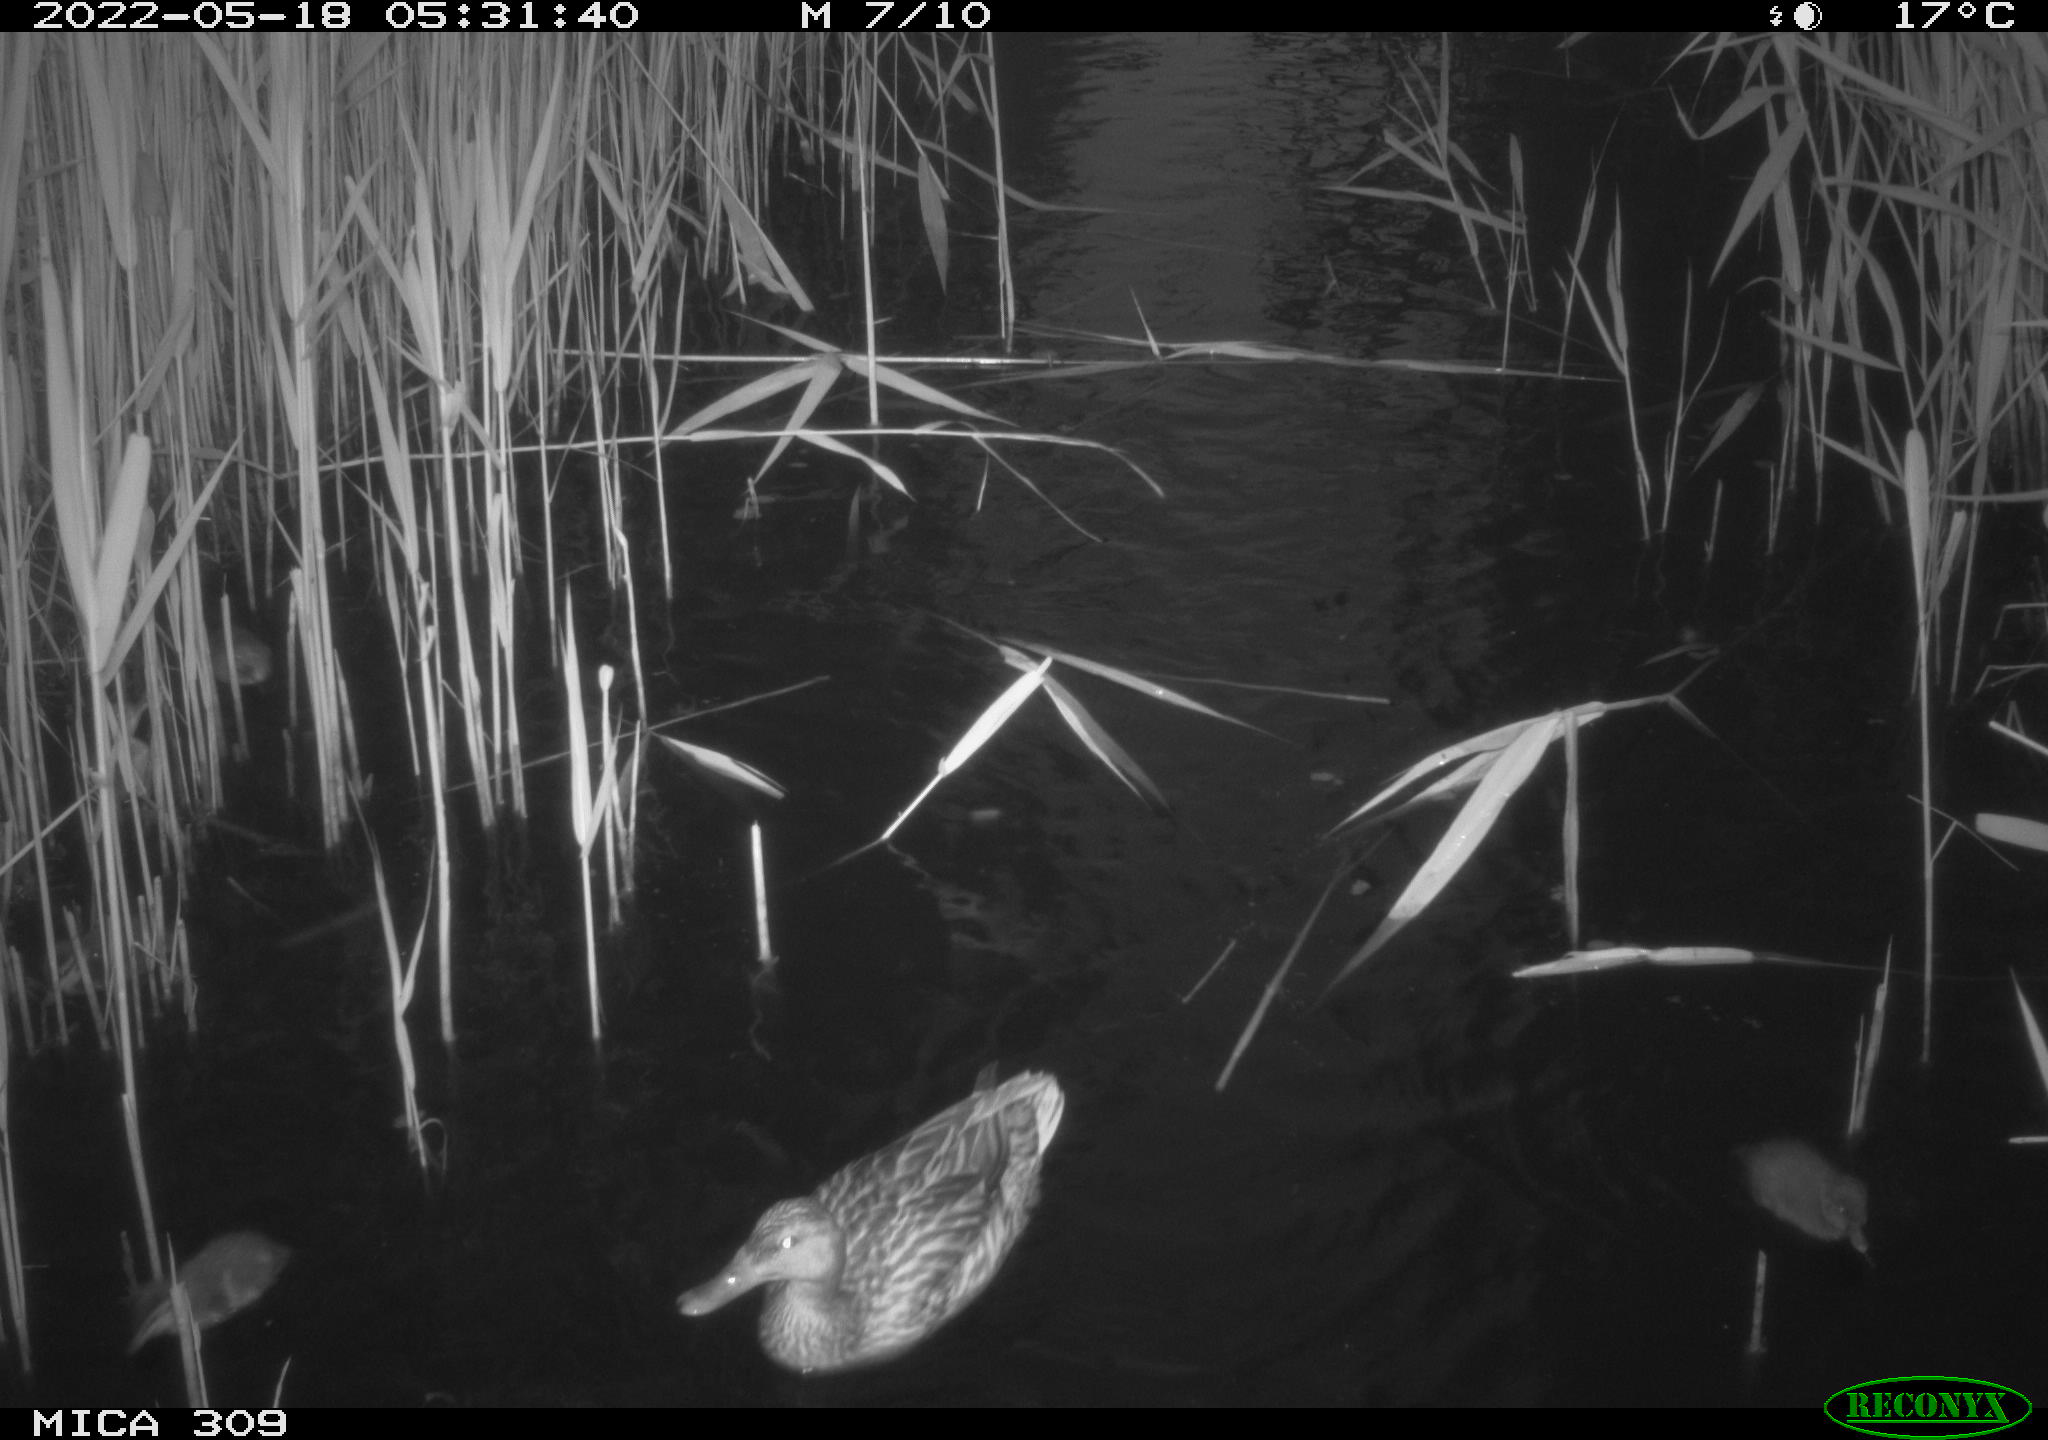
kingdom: Animalia
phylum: Chordata
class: Aves
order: Anseriformes
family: Anatidae
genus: Anas
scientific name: Anas platyrhynchos
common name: Mallard
